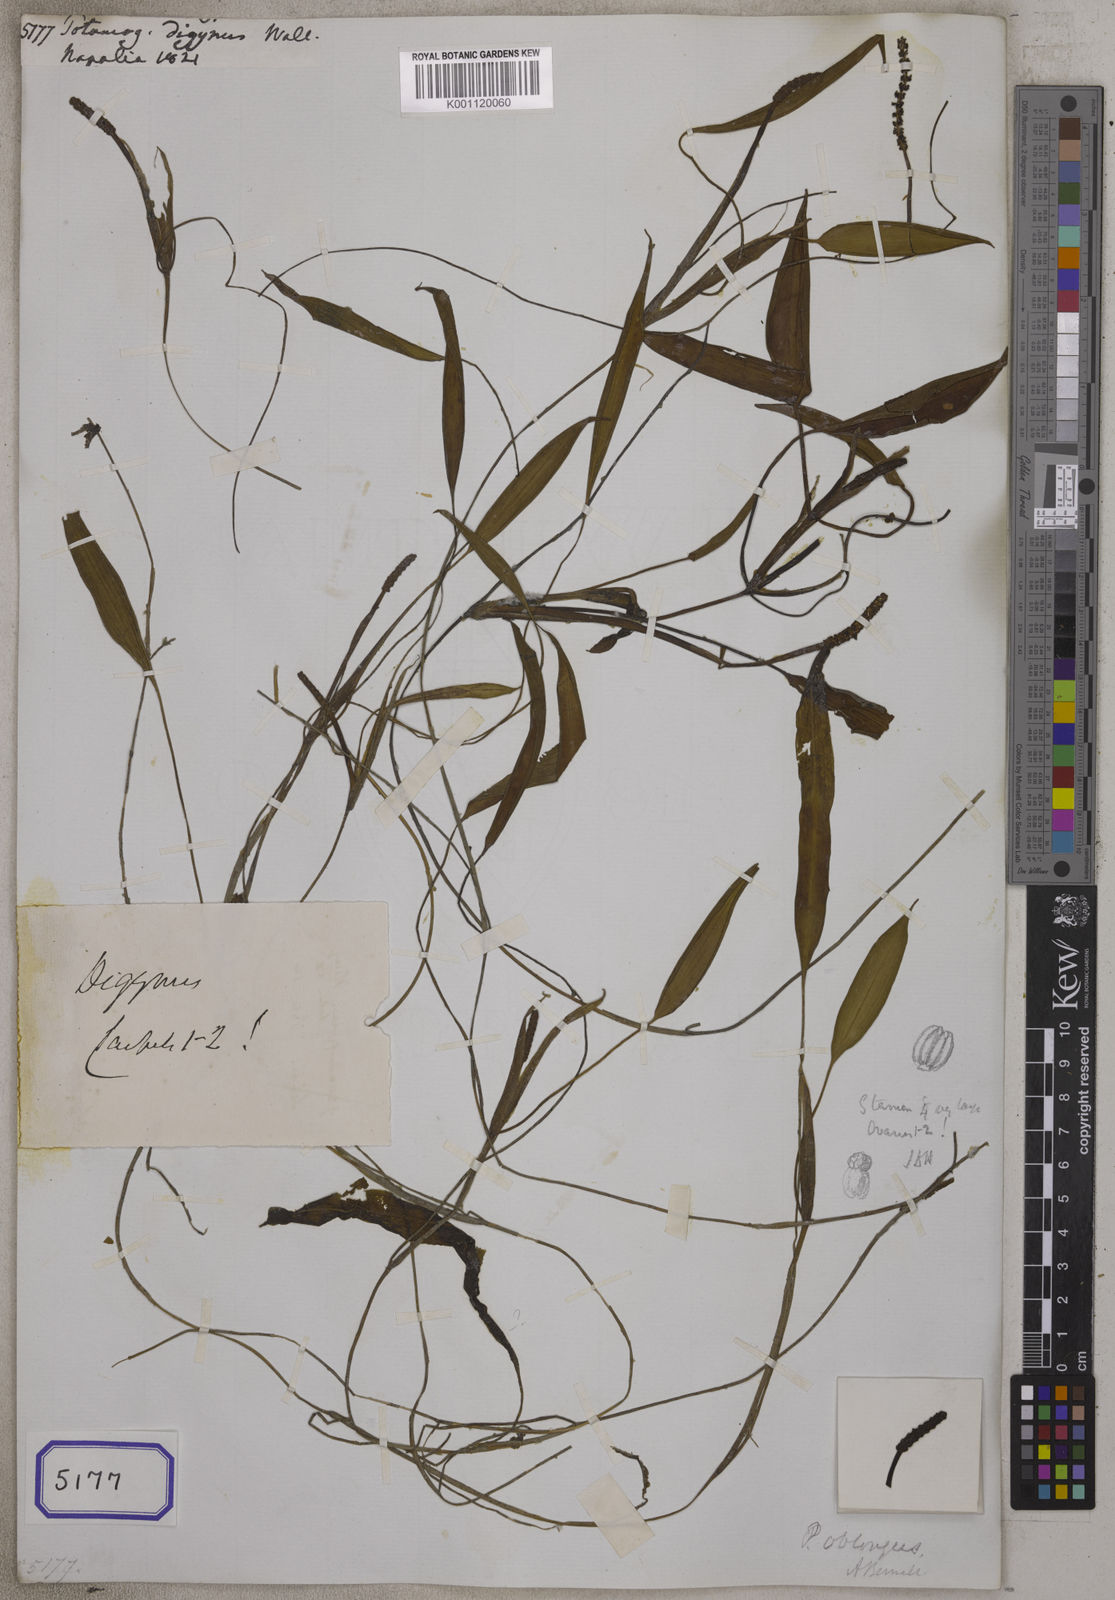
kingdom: Plantae
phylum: Tracheophyta
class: Liliopsida
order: Alismatales
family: Potamogetonaceae
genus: Potamogeton
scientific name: Potamogeton distinctus
